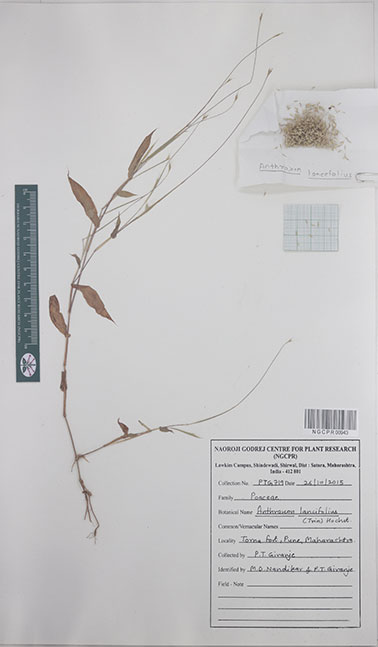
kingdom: Plantae
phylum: Tracheophyta
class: Liliopsida
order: Poales
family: Poaceae
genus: Arthraxon
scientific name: Arthraxon lancifolius
